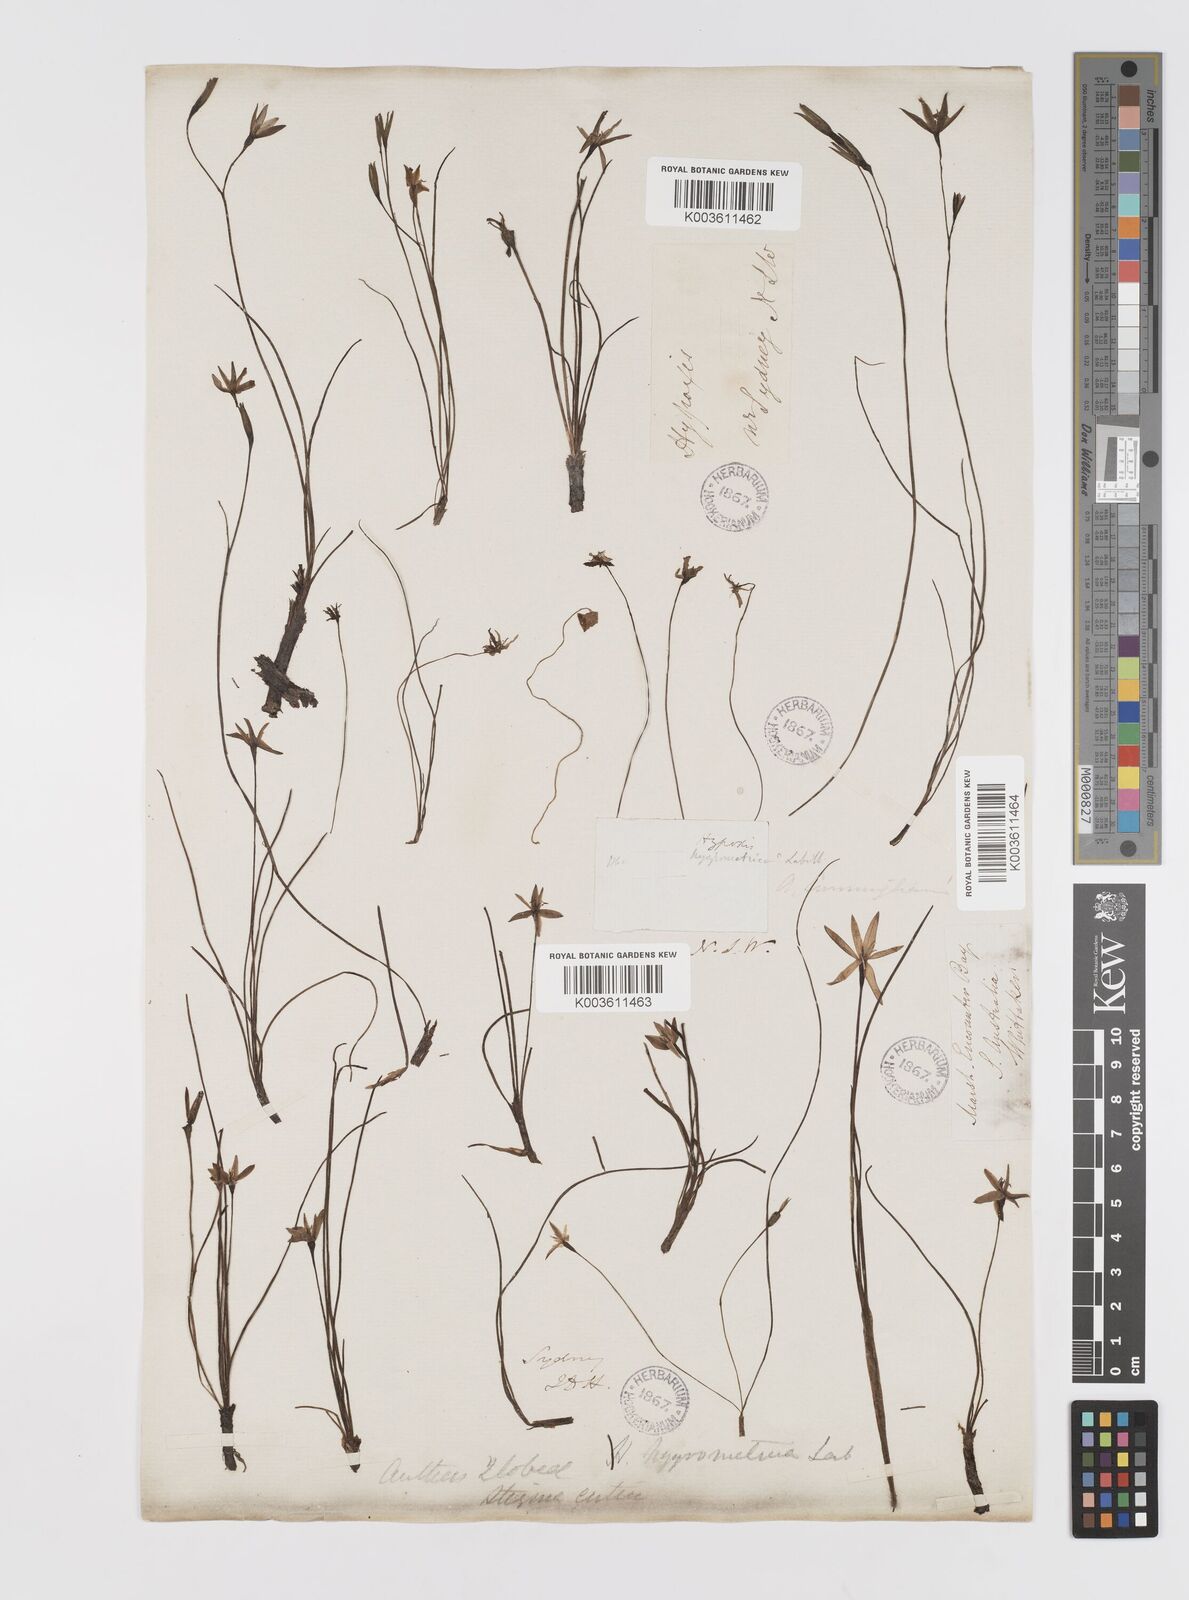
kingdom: Plantae
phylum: Tracheophyta
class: Liliopsida
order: Asparagales
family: Hypoxidaceae
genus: Hypoxis
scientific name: Hypoxis hygrometrica
